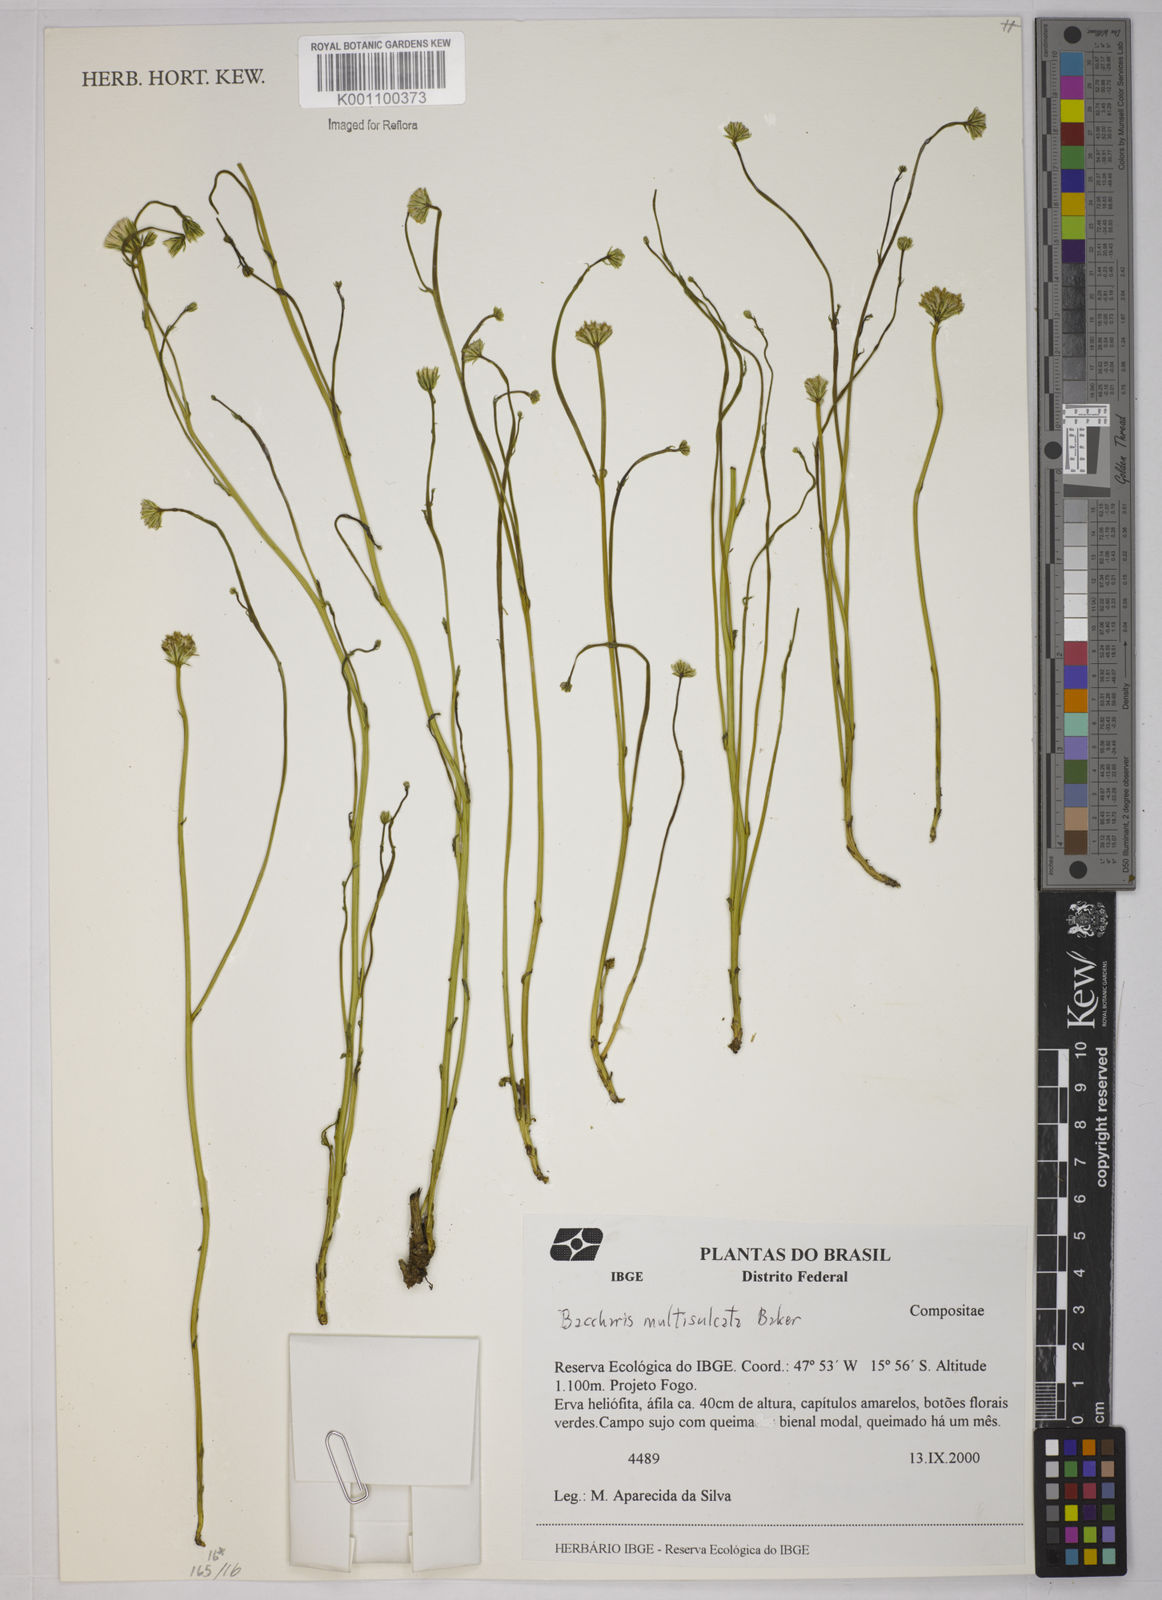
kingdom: Plantae
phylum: Tracheophyta
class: Magnoliopsida
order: Asterales
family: Asteraceae
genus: Baccharis
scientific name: Baccharis orbignyana
